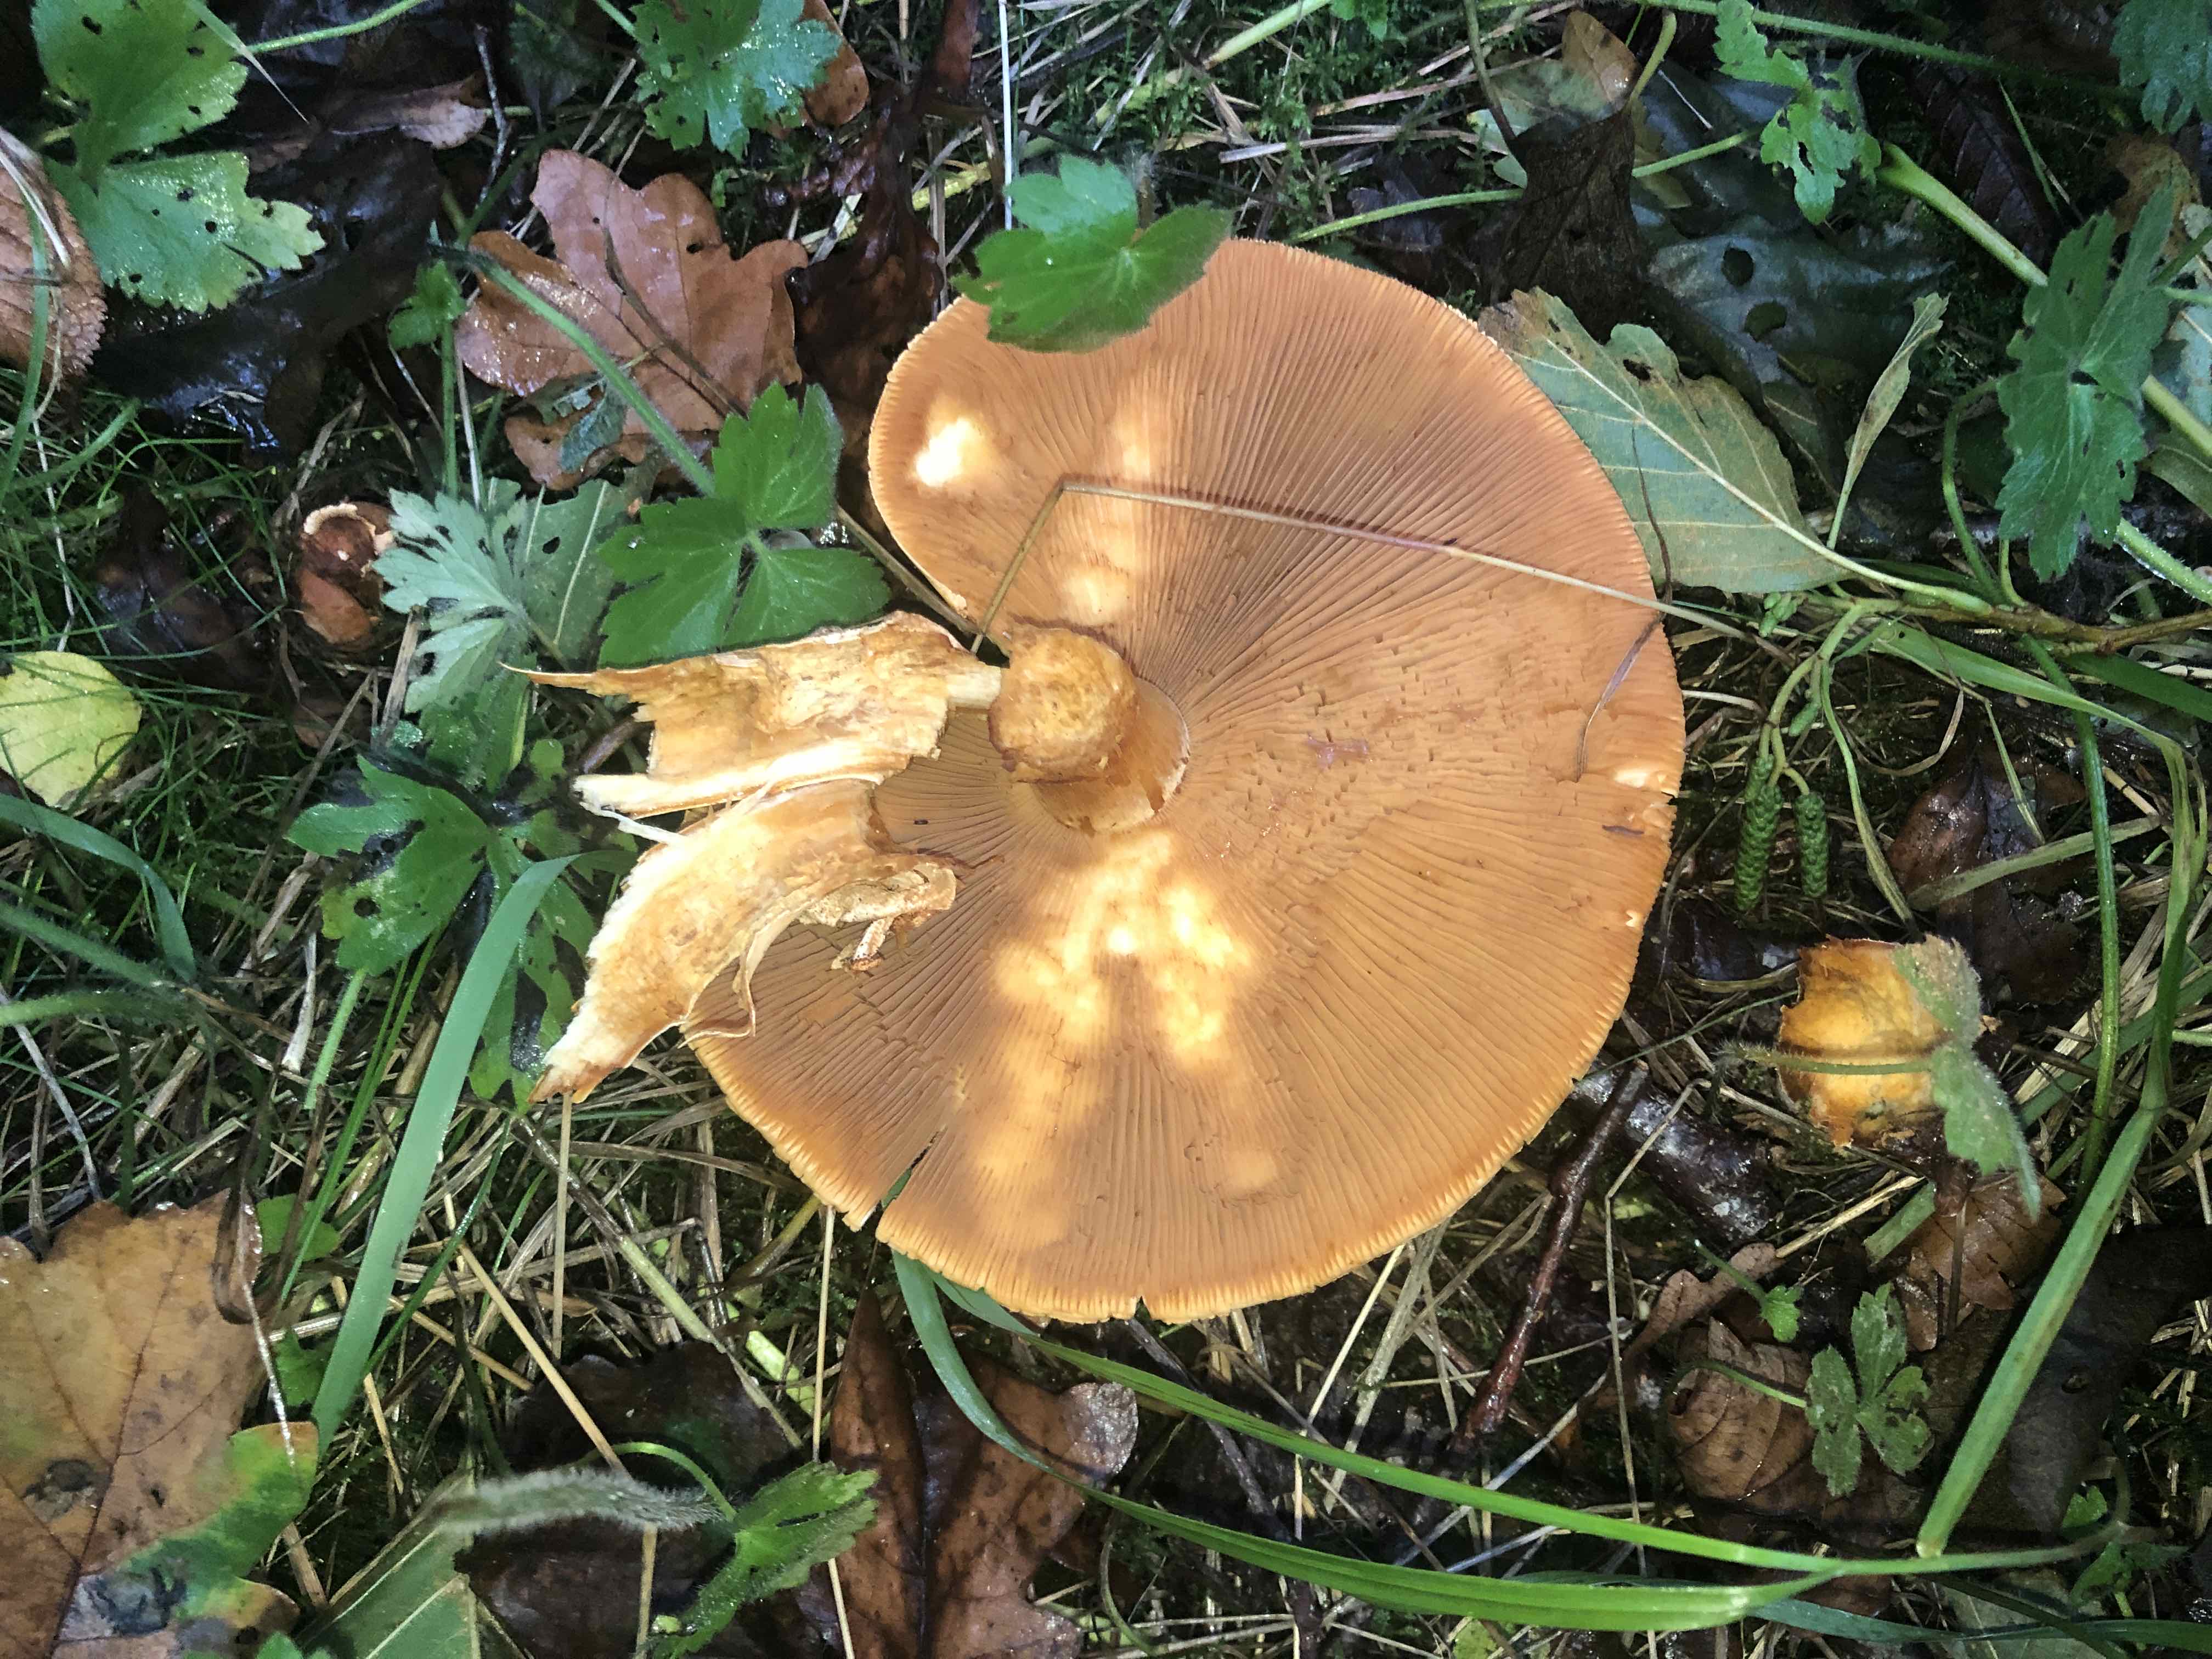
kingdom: Fungi
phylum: Basidiomycota
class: Agaricomycetes
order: Agaricales
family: Tricholomataceae
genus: Phaeolepiota
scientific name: Phaeolepiota aurea
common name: gyldenhat
